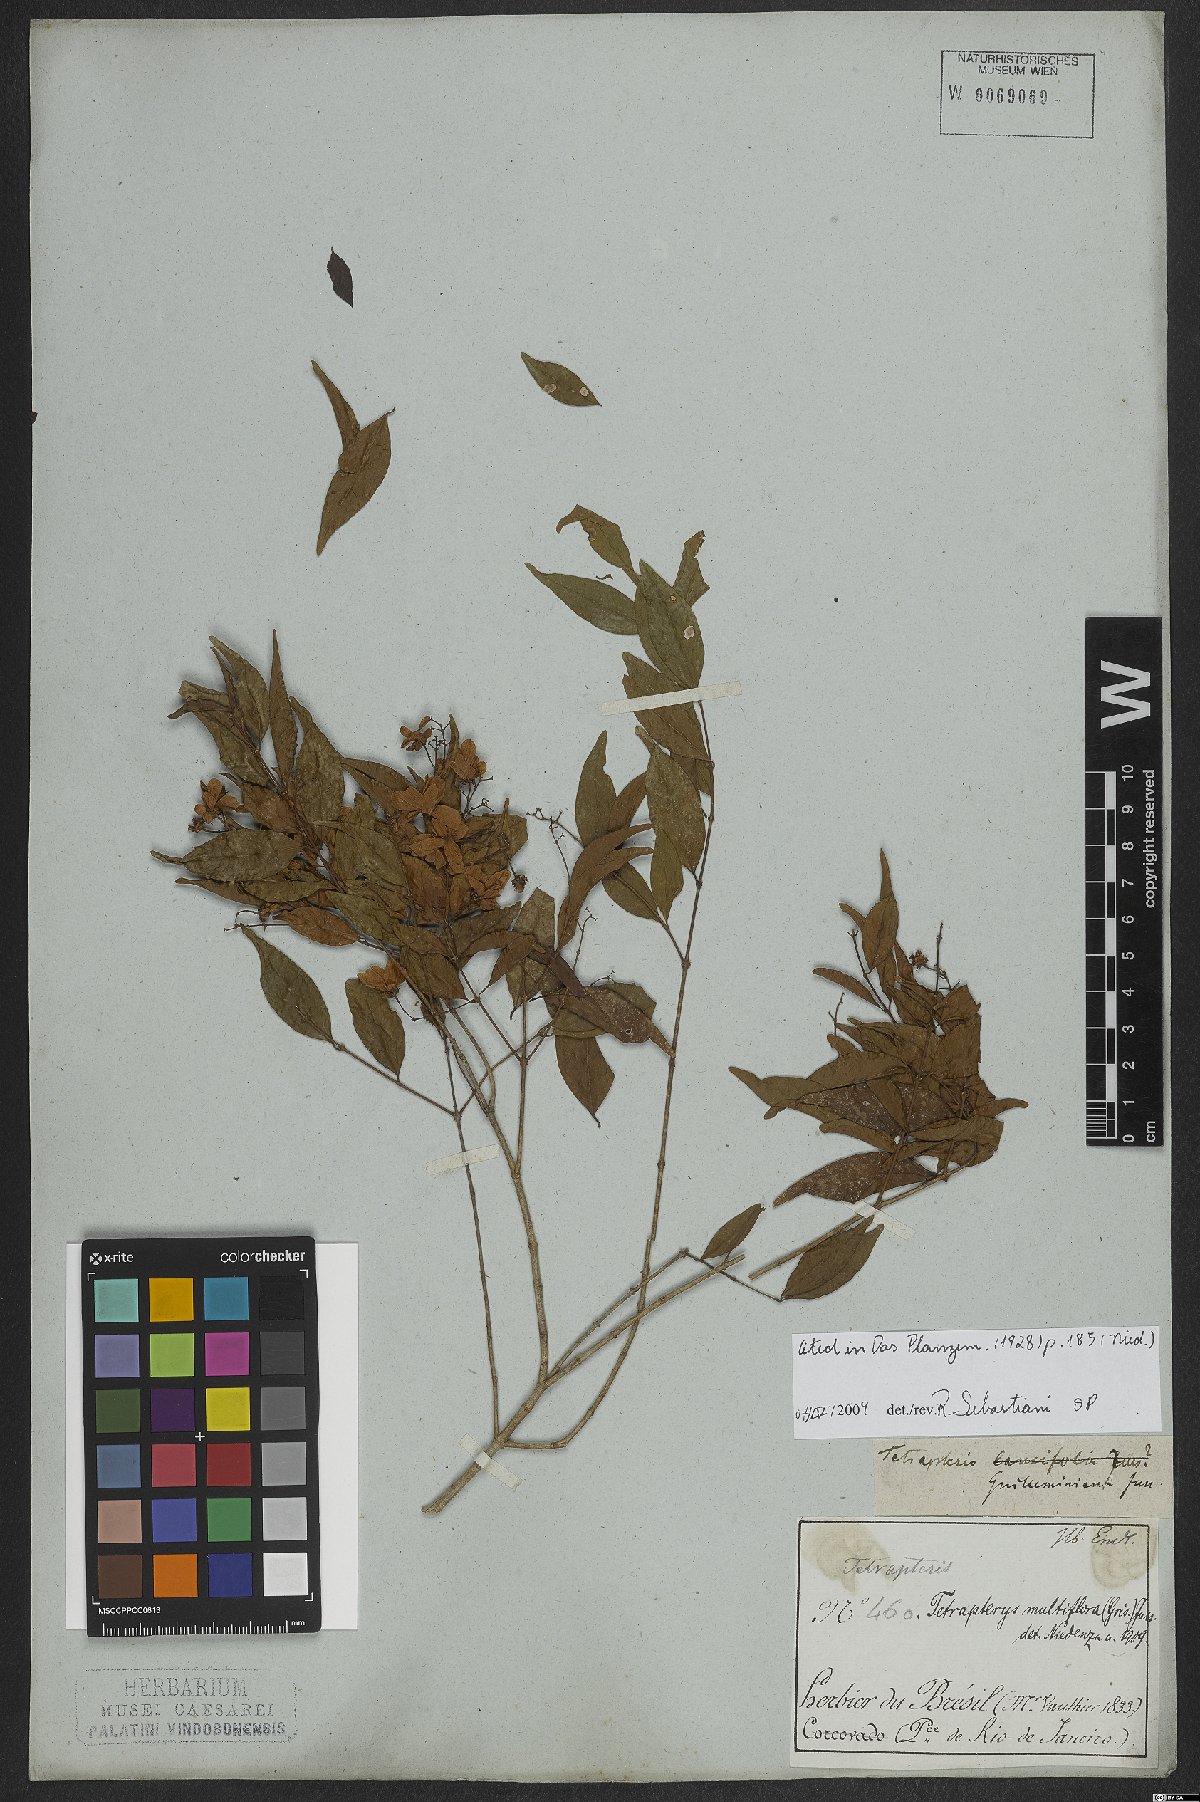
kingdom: Plantae
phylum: Tracheophyta
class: Magnoliopsida
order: Malpighiales
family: Malpighiaceae
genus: Niedenzuella
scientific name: Niedenzuella mogoriifolia
